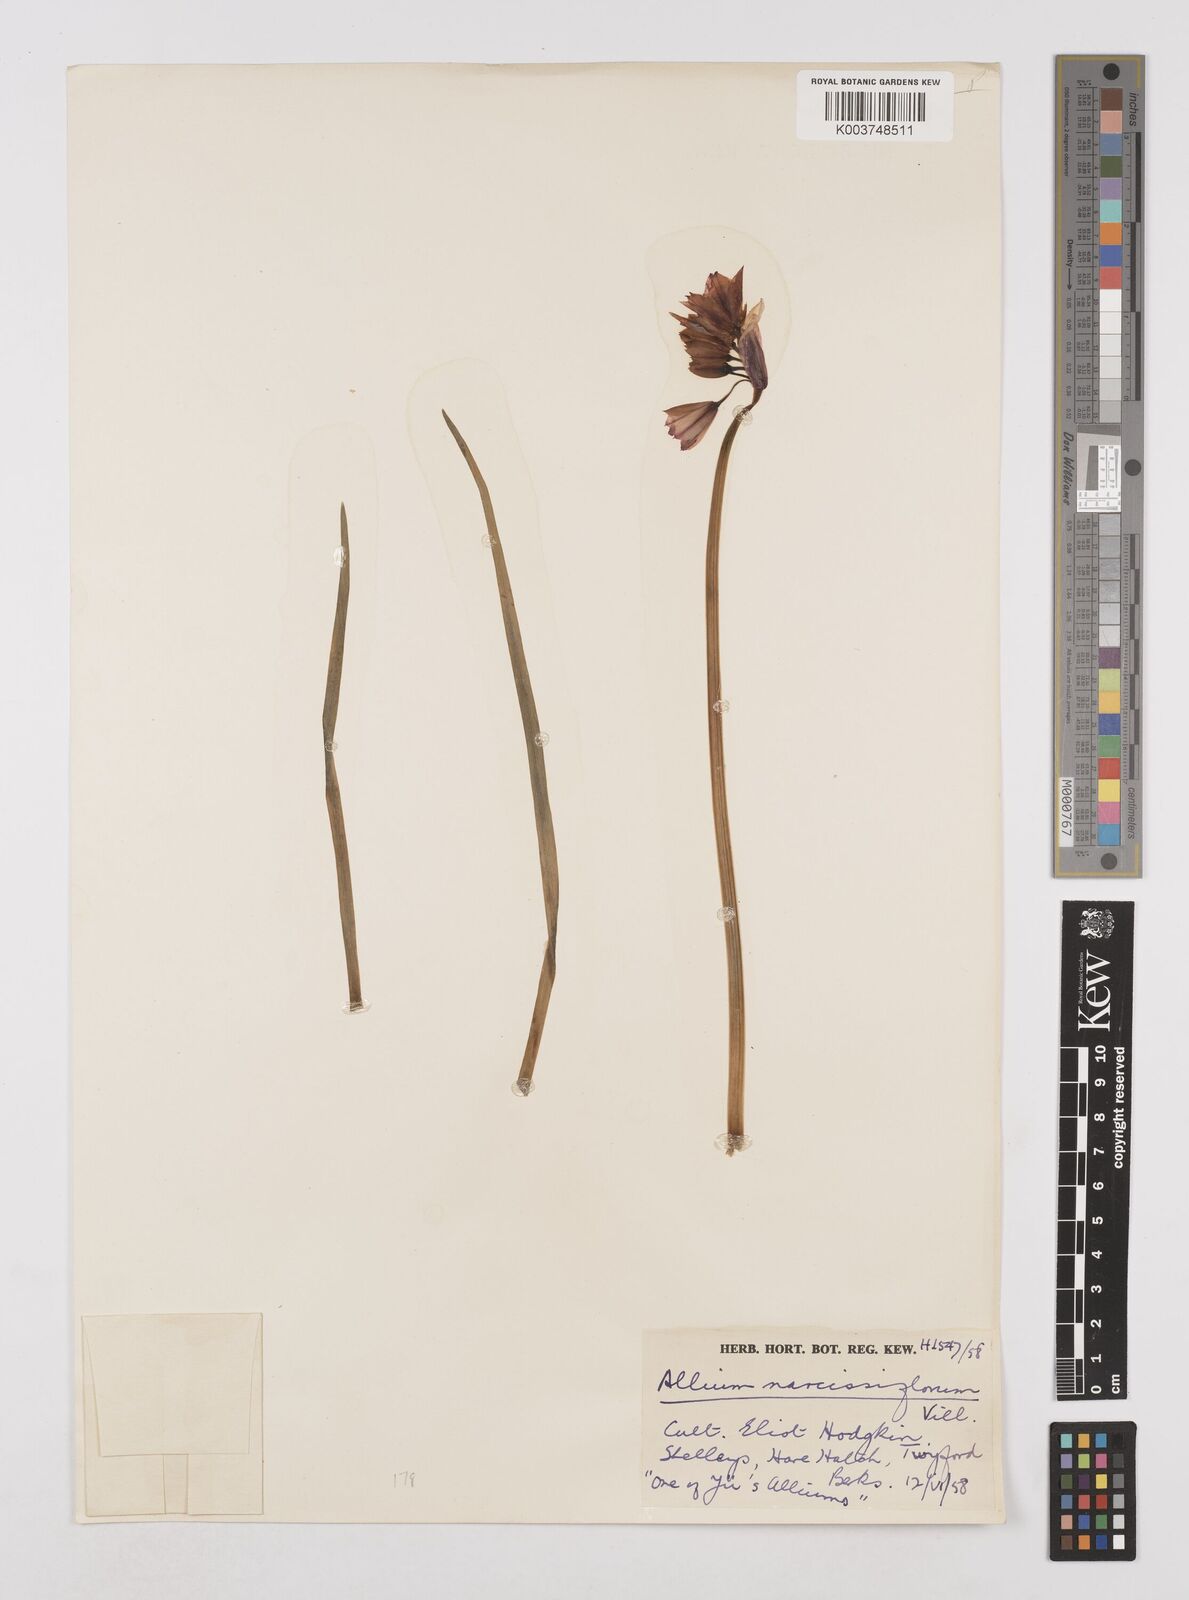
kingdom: Plantae
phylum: Tracheophyta
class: Liliopsida
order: Asparagales
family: Amaryllidaceae
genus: Allium
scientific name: Allium narcissiflorum
